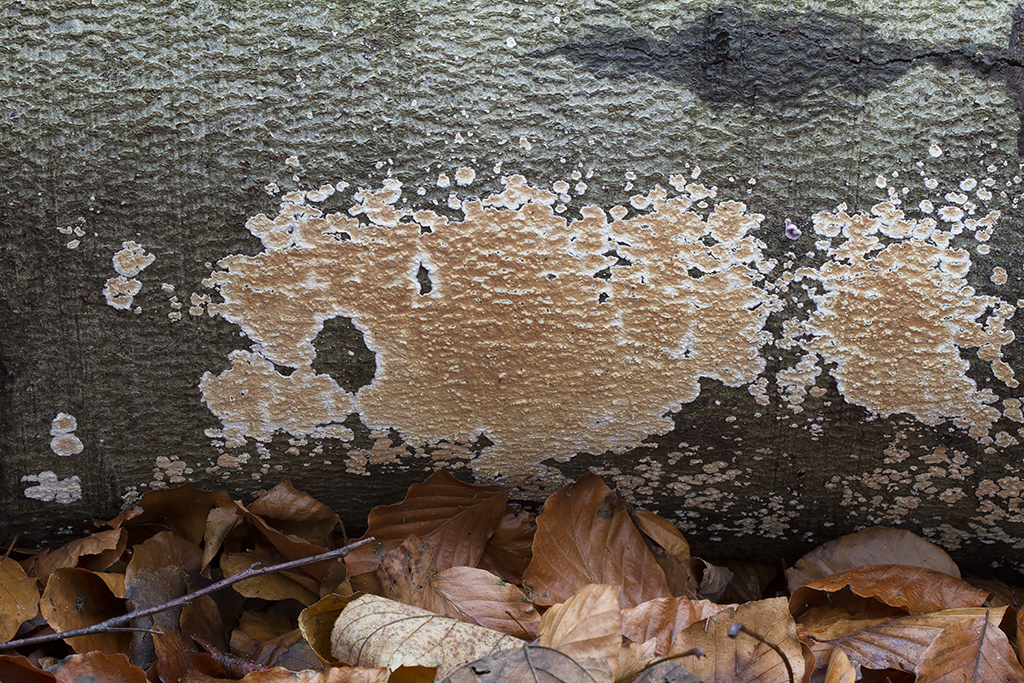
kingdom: Fungi
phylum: Basidiomycota
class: Agaricomycetes
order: Agaricales
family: Physalacriaceae
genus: Cylindrobasidium
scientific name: Cylindrobasidium evolvens
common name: sprækkehinde
